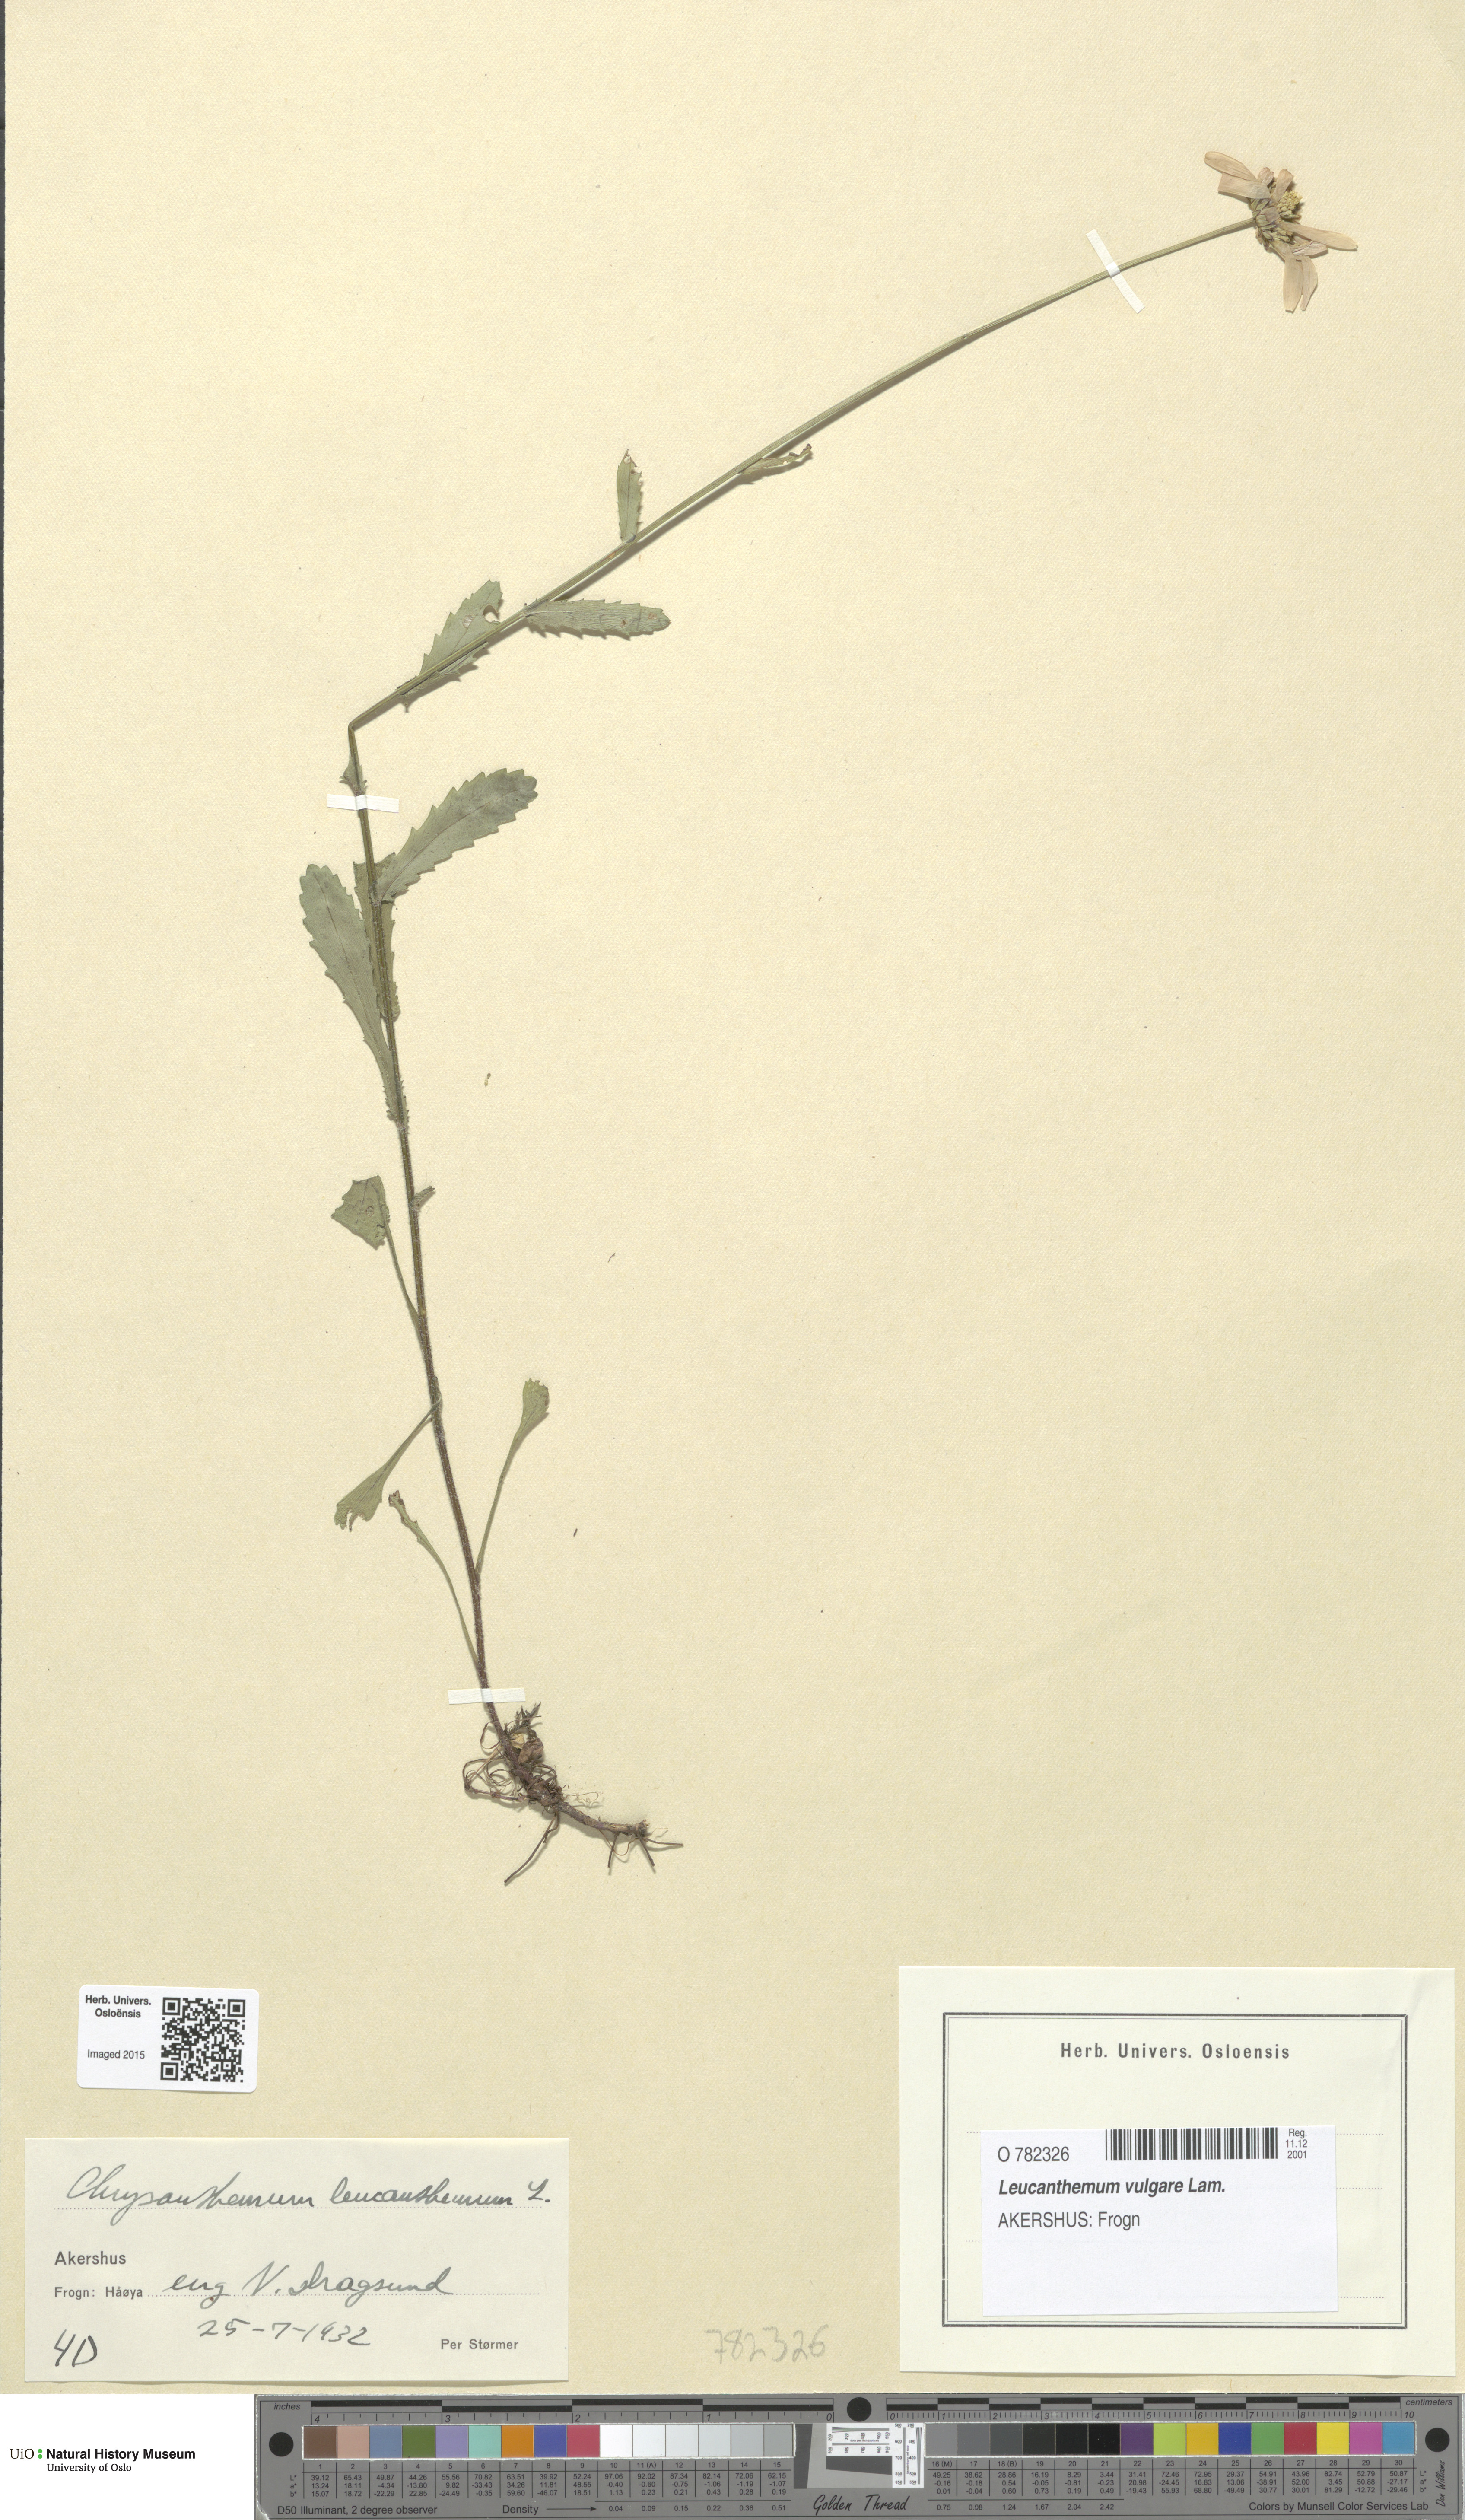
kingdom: Plantae
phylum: Tracheophyta
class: Magnoliopsida
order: Asterales
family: Asteraceae
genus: Leucanthemum
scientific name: Leucanthemum vulgare
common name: Oxeye daisy
